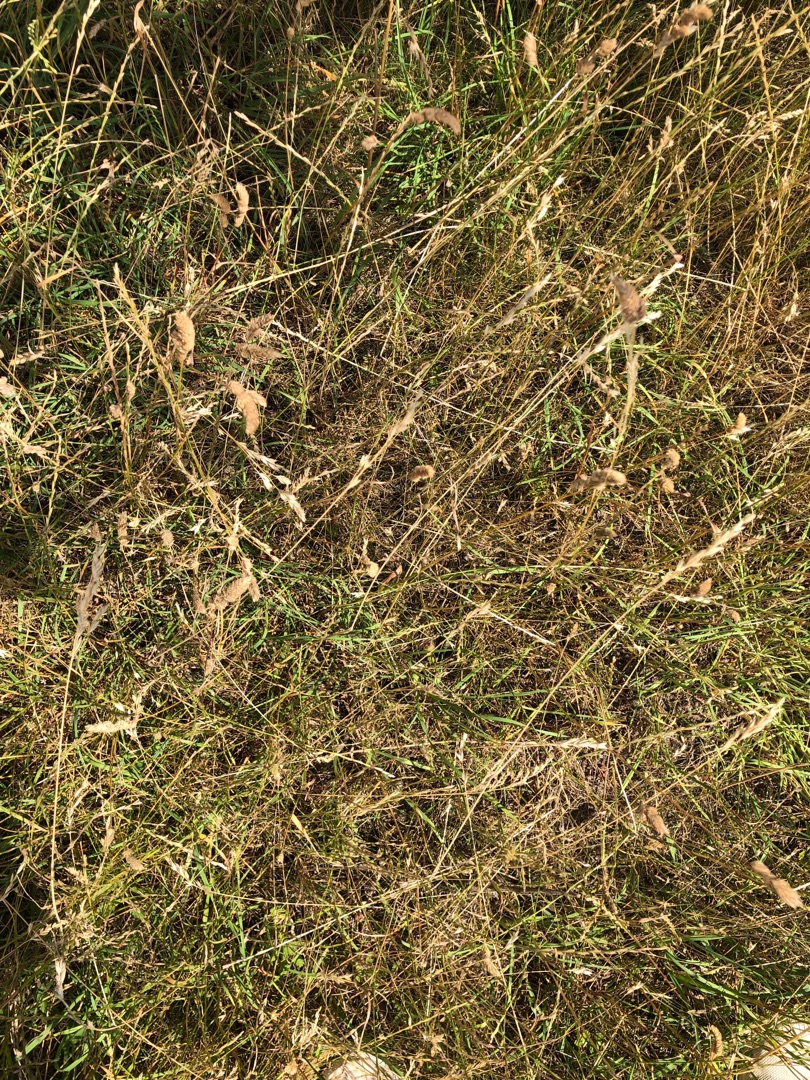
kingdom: Plantae
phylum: Tracheophyta
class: Liliopsida
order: Poales
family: Poaceae
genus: Dactylis
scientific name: Dactylis glomerata
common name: Almindelig hundegræs
